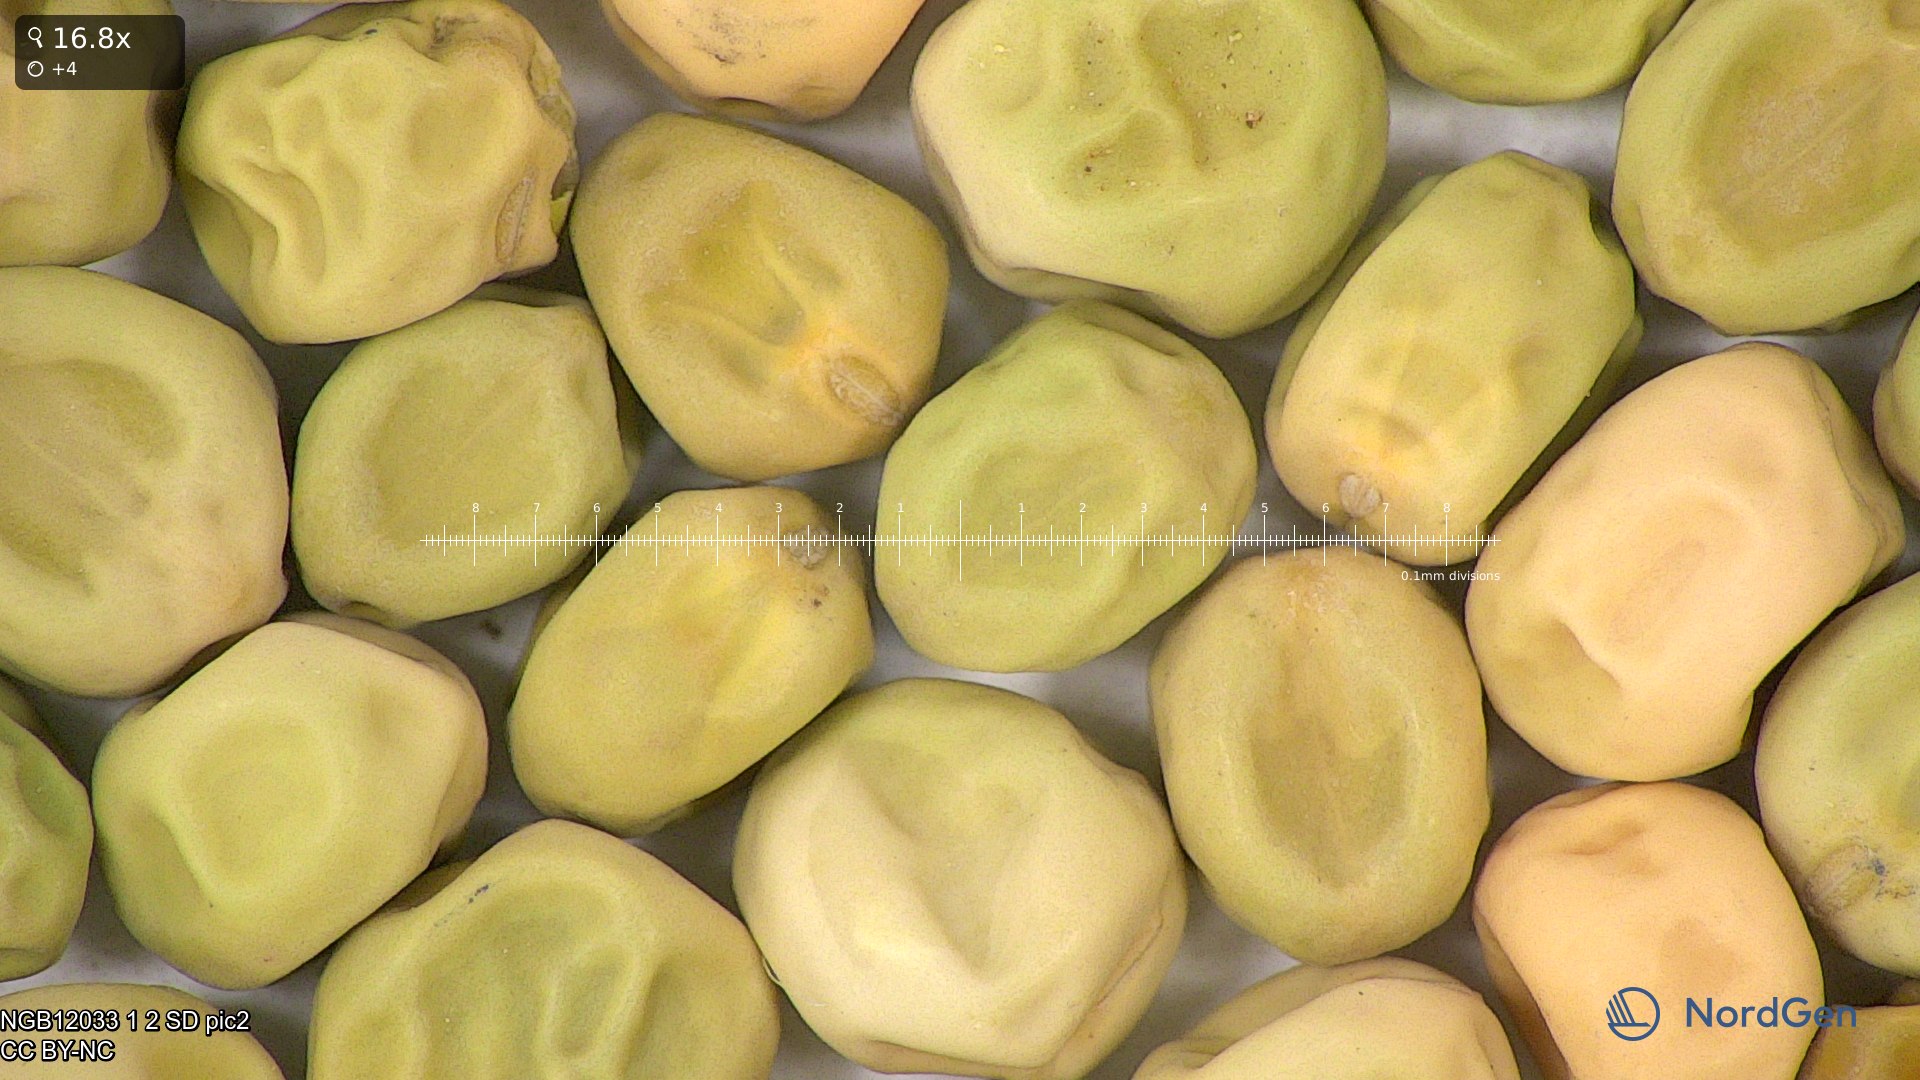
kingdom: Plantae
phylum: Tracheophyta
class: Magnoliopsida
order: Fabales
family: Fabaceae
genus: Lathyrus
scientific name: Lathyrus oleraceus
